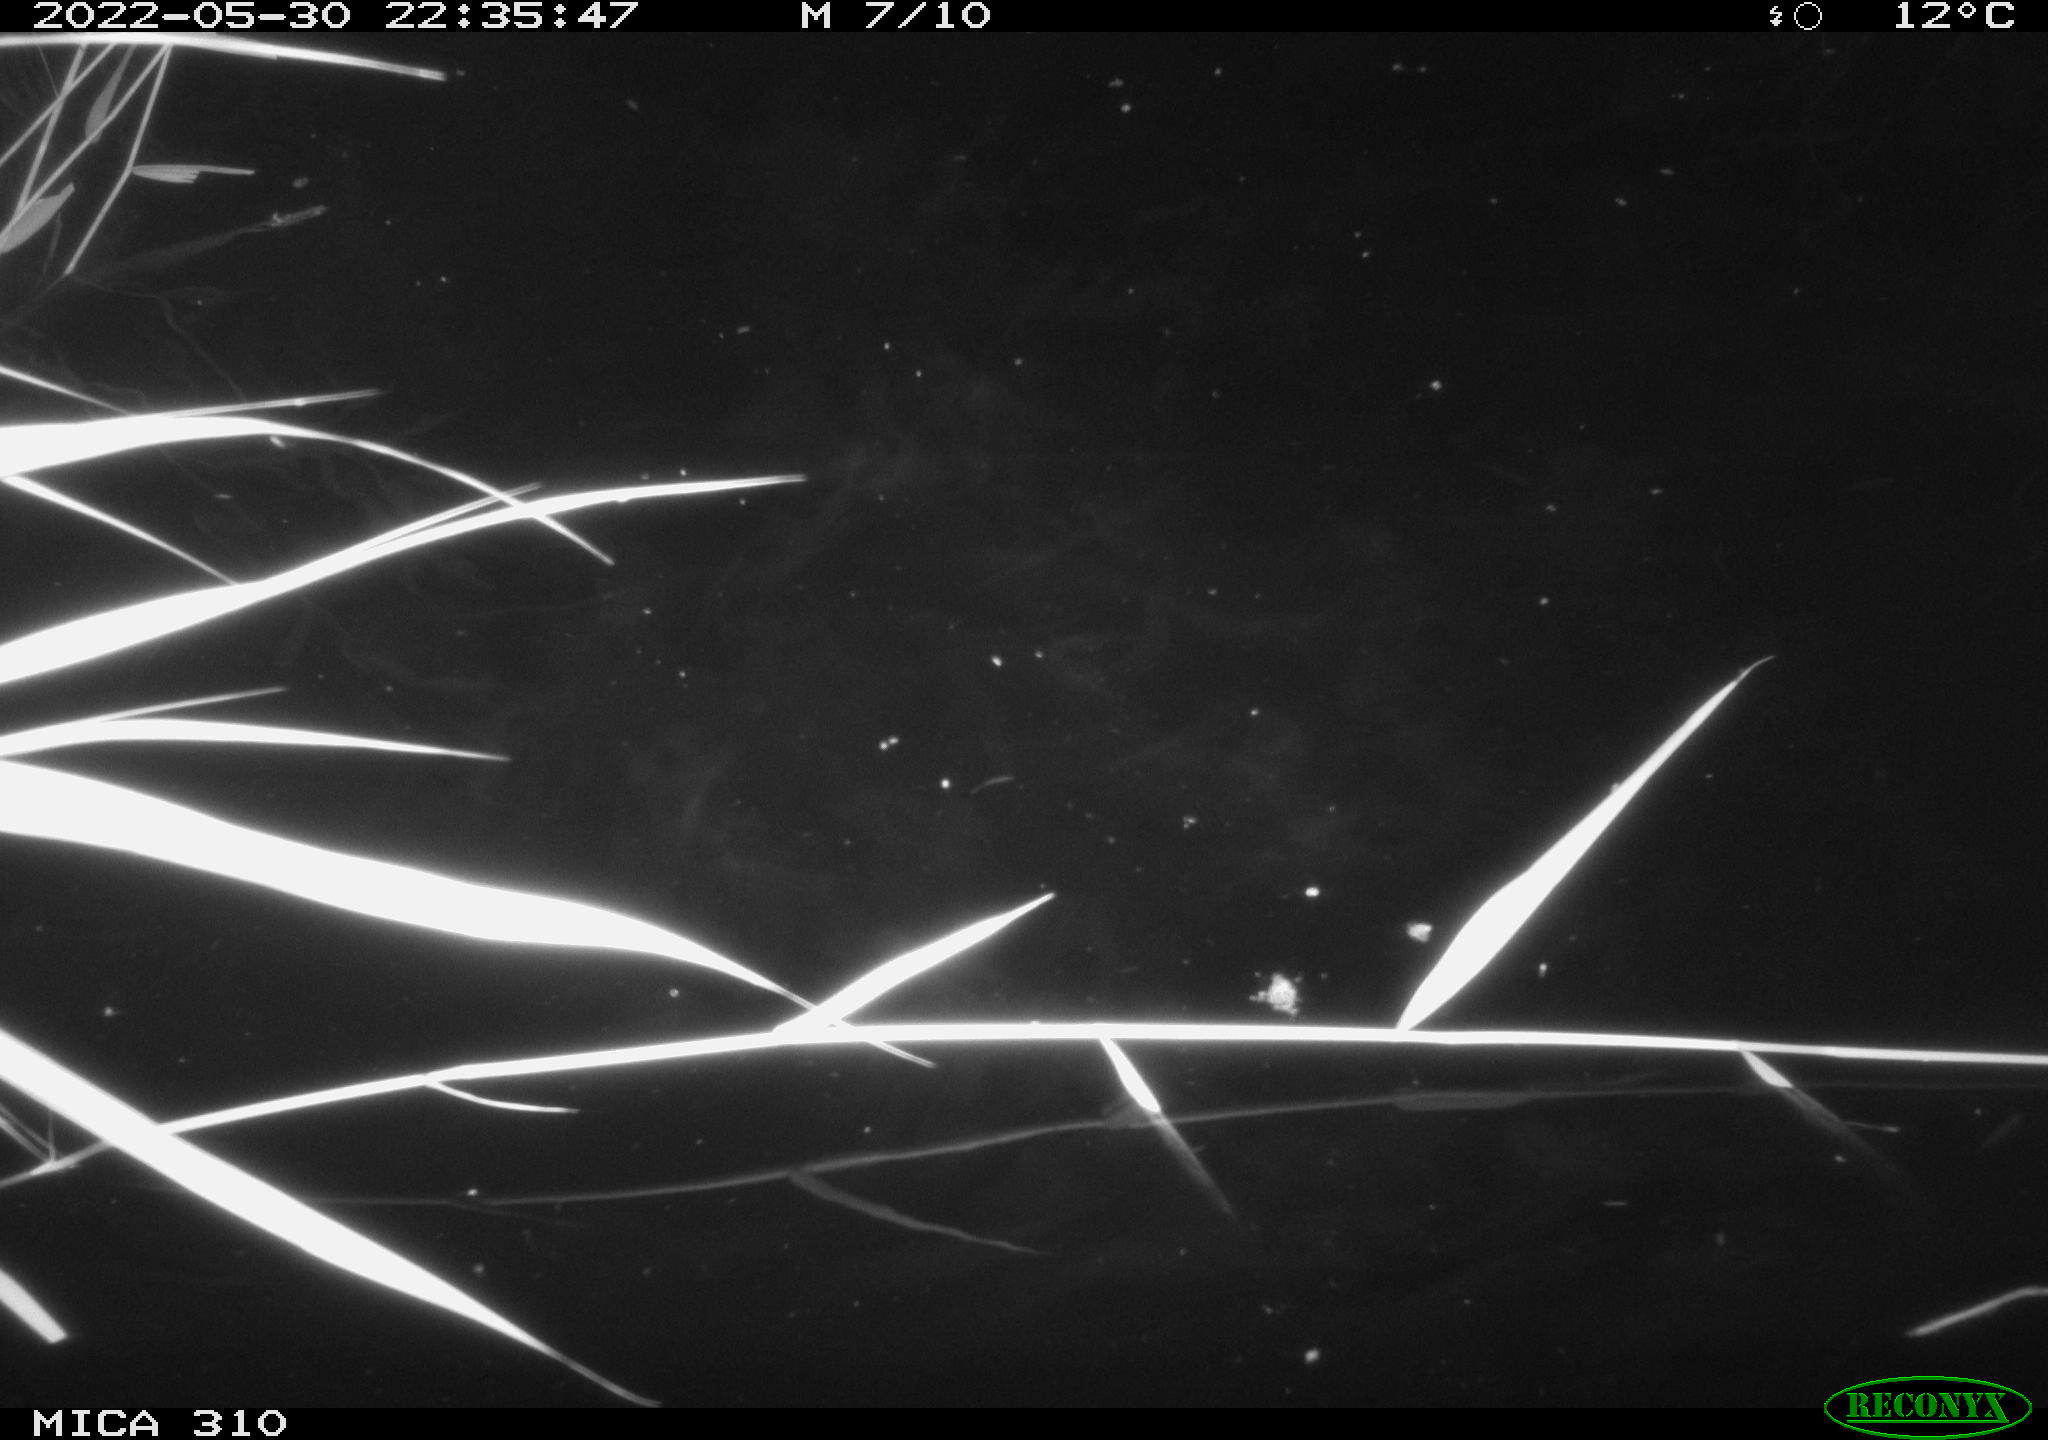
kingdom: Animalia
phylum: Chordata
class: Mammalia
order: Rodentia
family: Cricetidae
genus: Ondatra
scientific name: Ondatra zibethicus
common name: Muskrat
